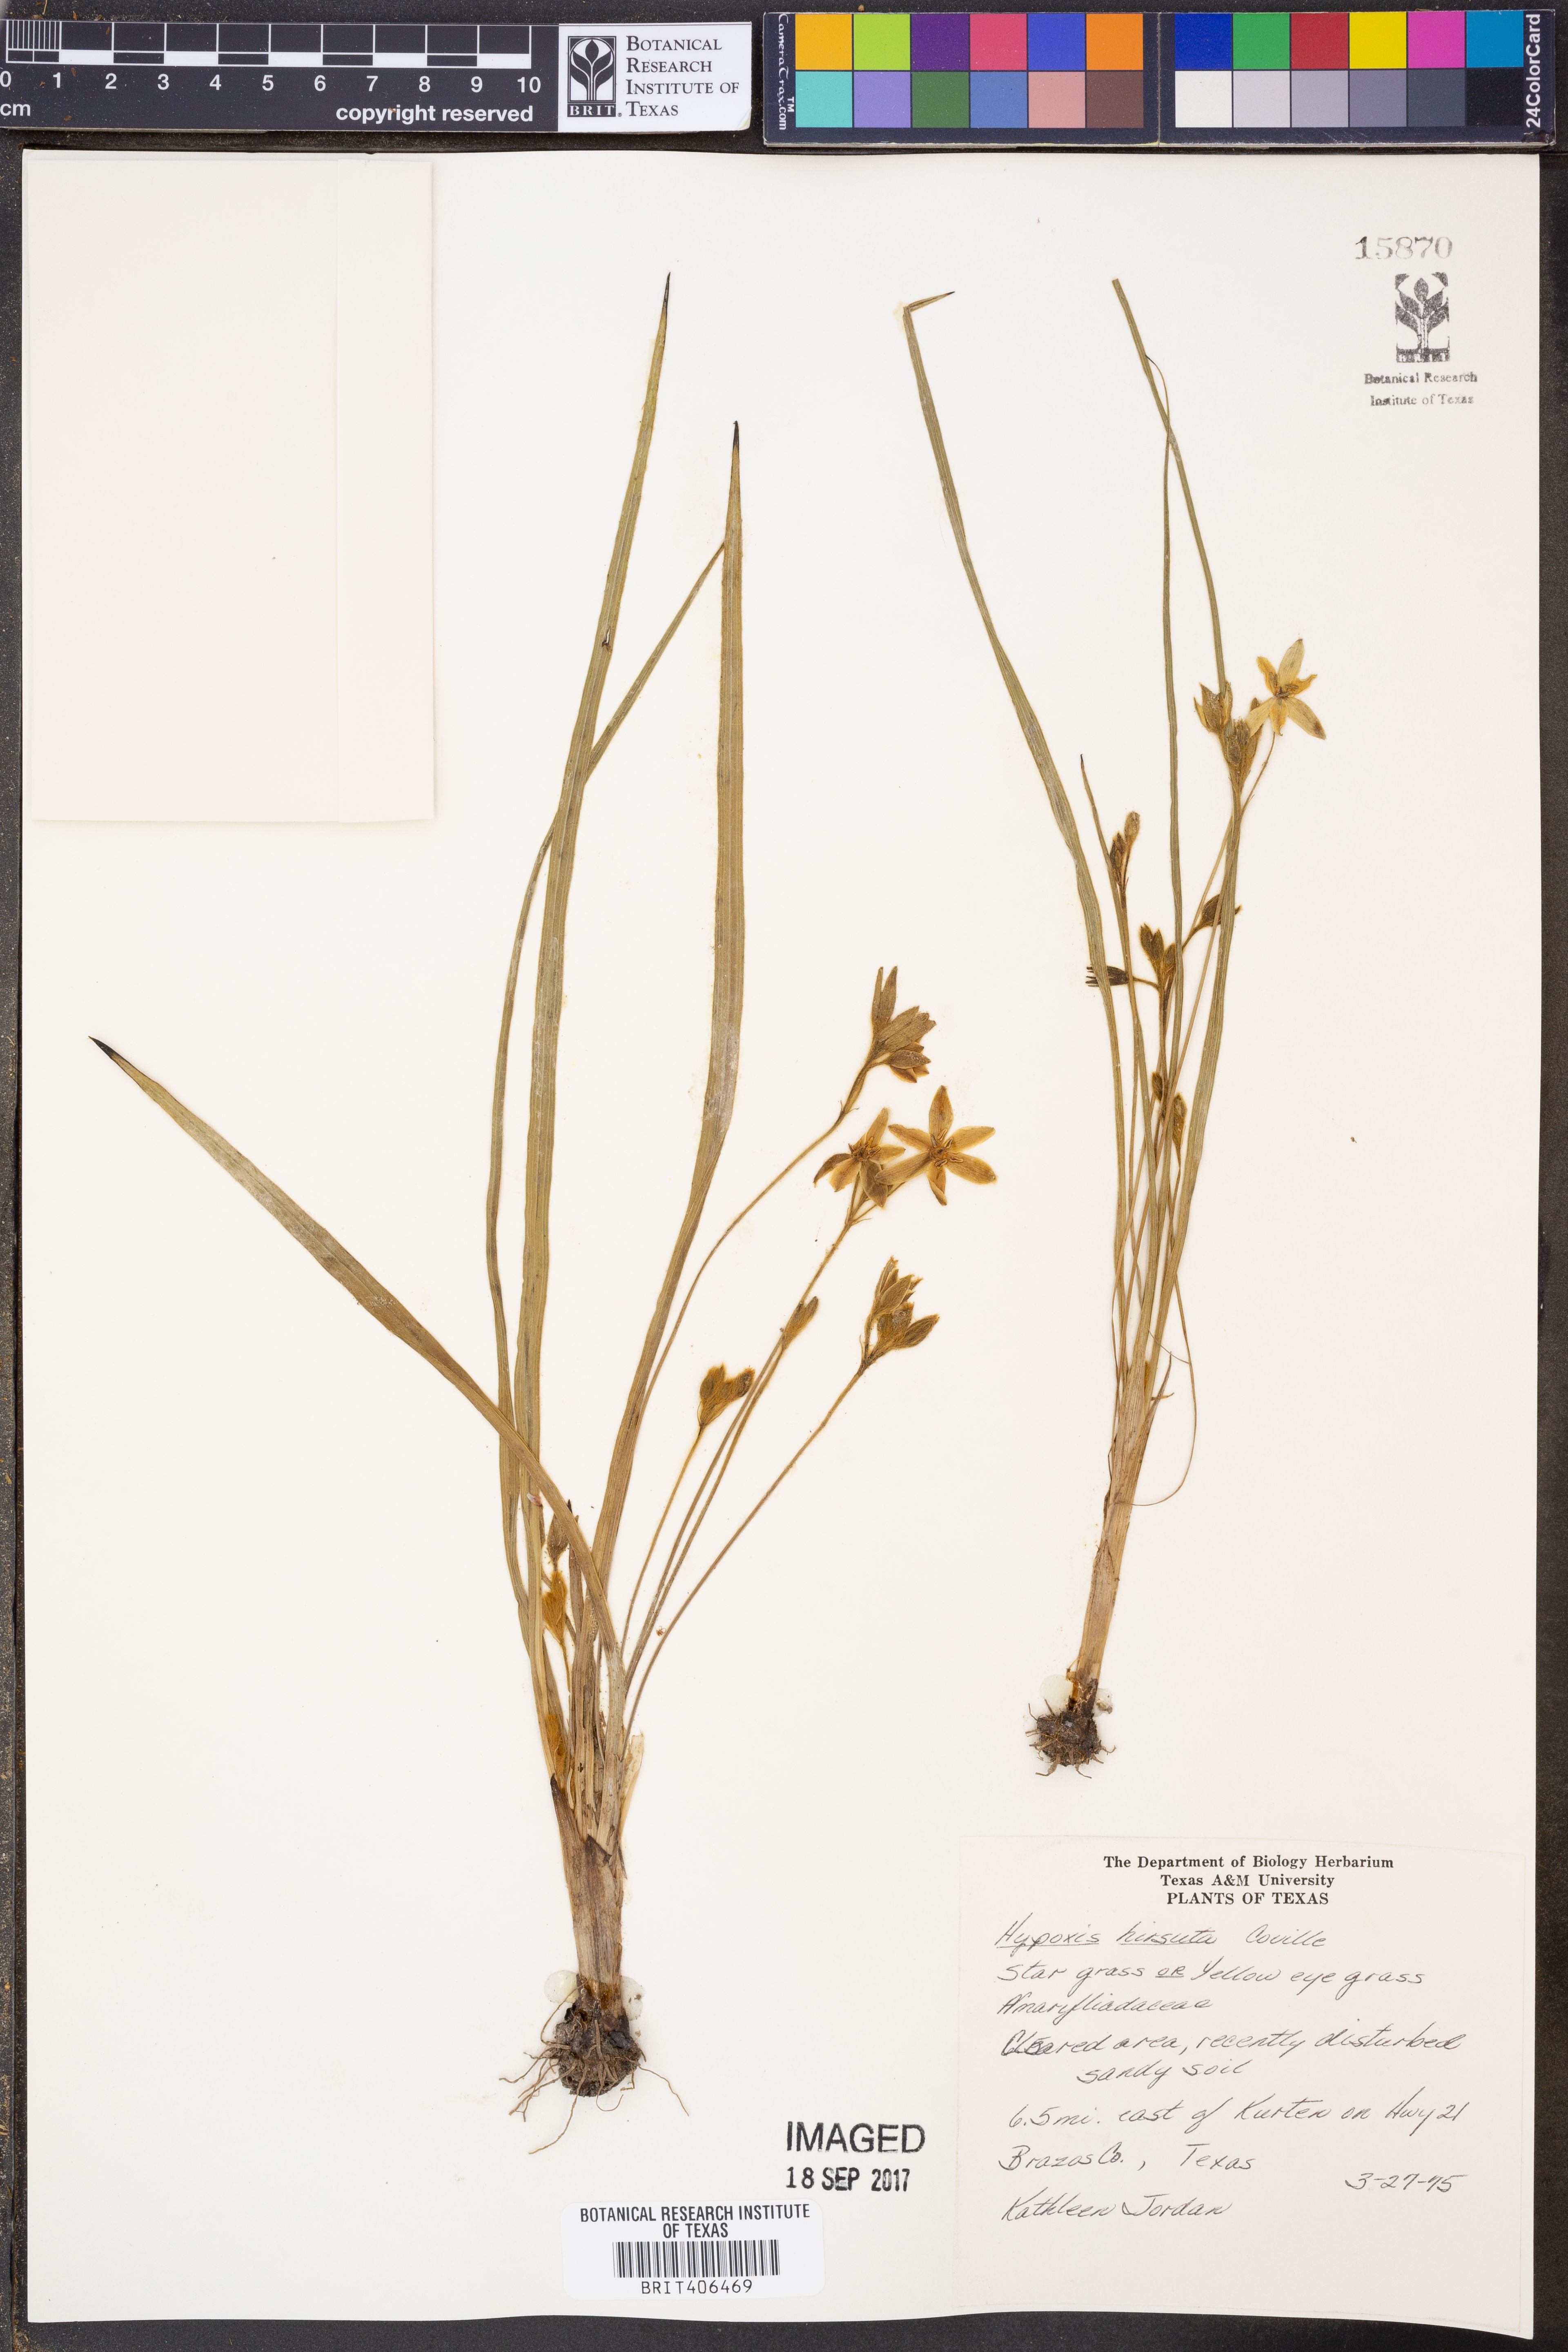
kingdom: Plantae
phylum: Tracheophyta
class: Liliopsida
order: Asparagales
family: Hypoxidaceae
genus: Hypoxis
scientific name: Hypoxis hirsuta
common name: Common goldstar
